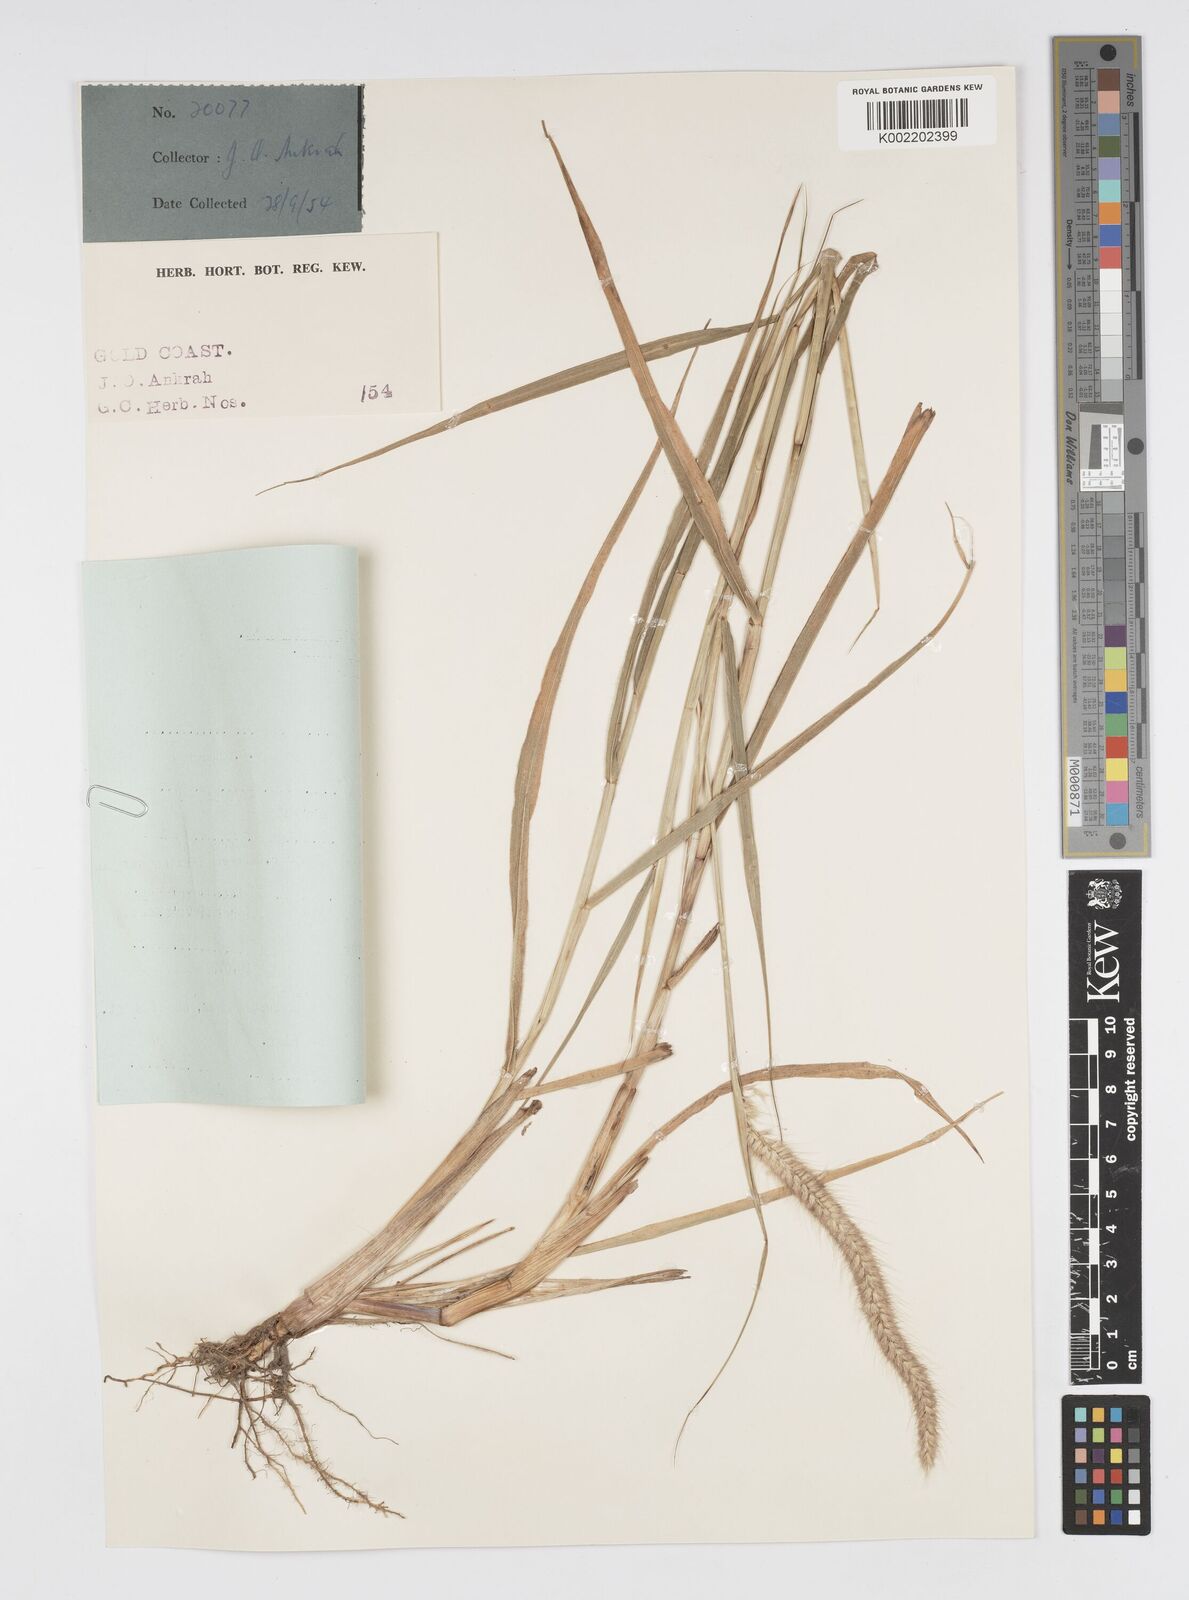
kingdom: Plantae
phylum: Tracheophyta
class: Liliopsida
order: Poales
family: Poaceae
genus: Setaria
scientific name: Setaria parviflora
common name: Knotroot bristle-grass
